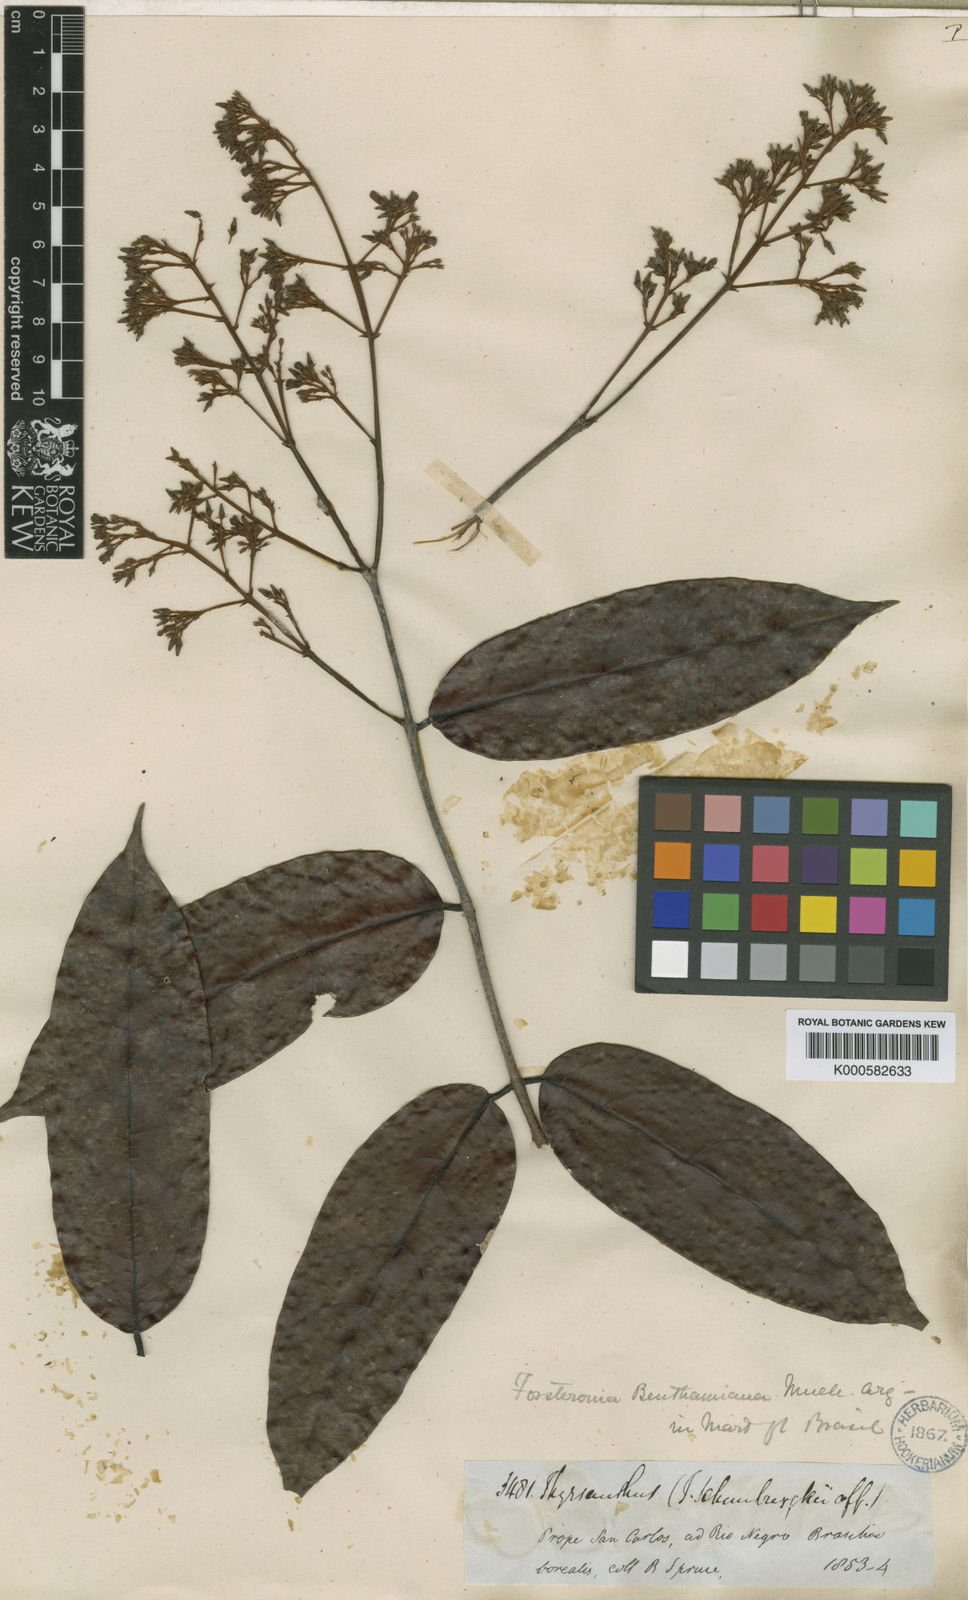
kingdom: Plantae
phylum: Tracheophyta
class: Magnoliopsida
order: Gentianales
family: Apocynaceae
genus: Forsteronia
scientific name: Forsteronia
